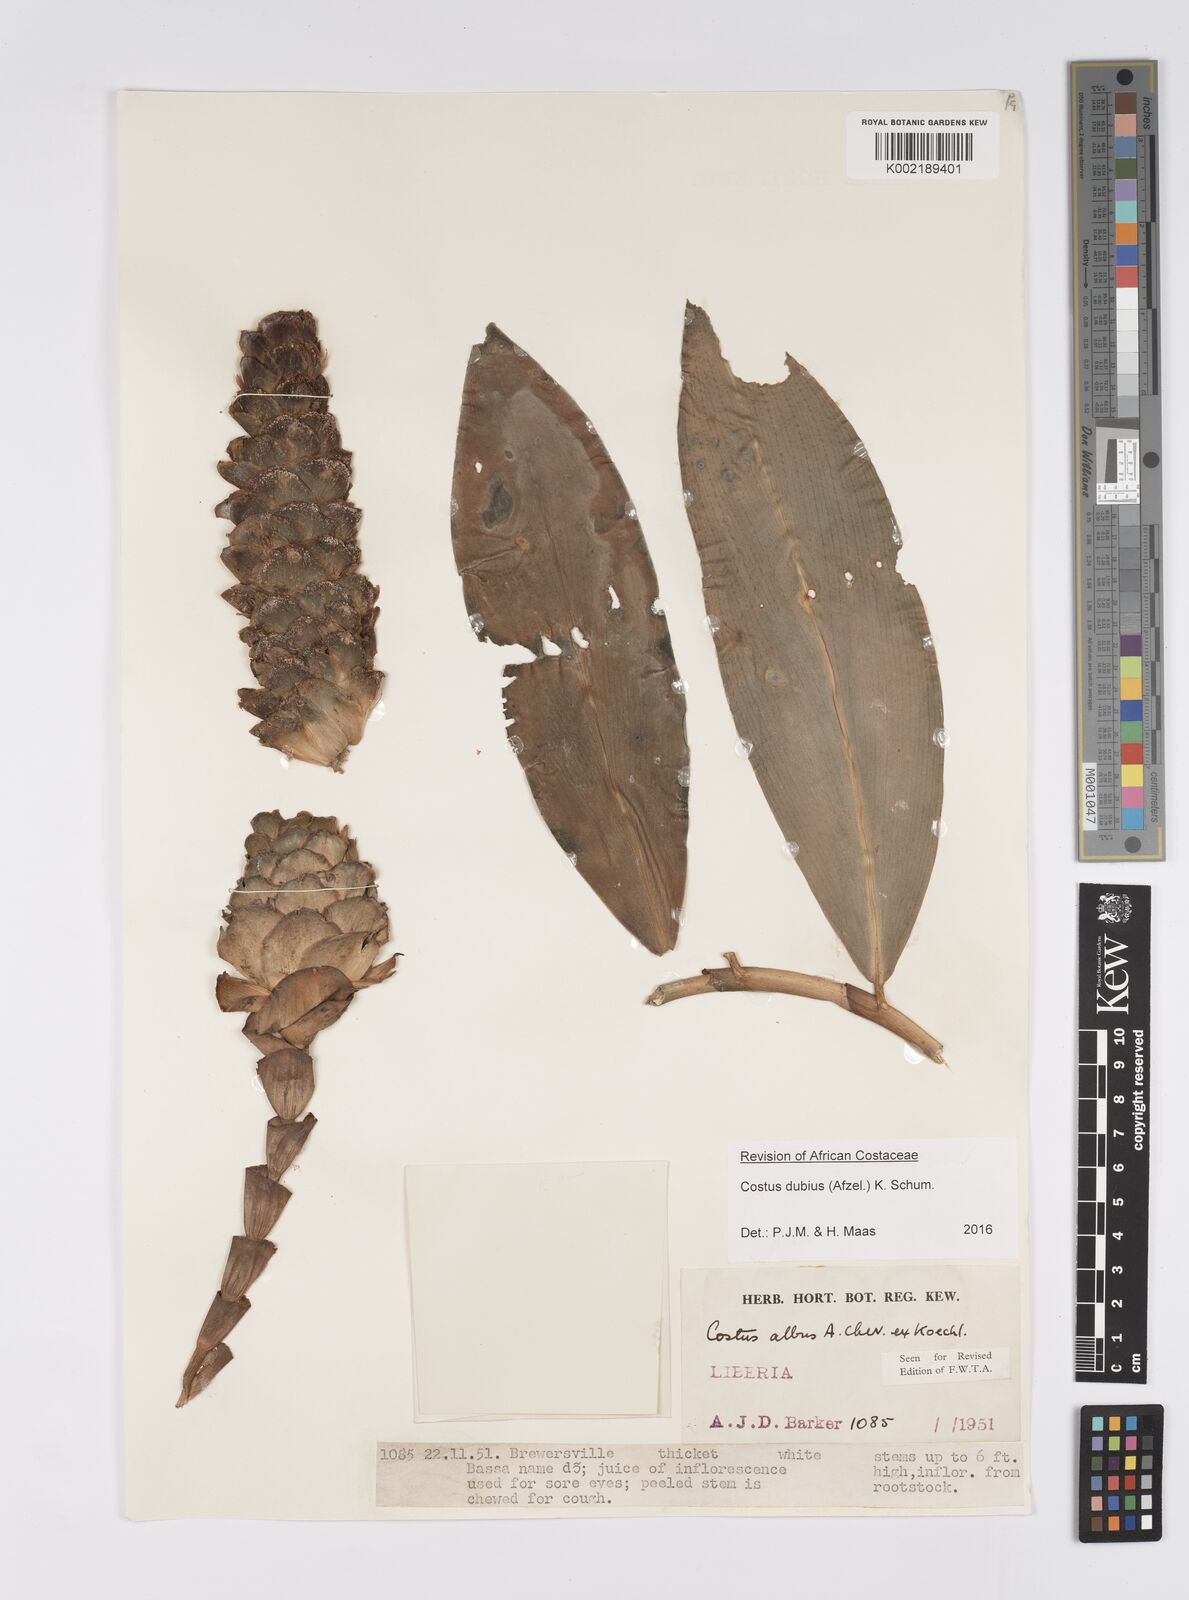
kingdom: Plantae
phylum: Tracheophyta
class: Liliopsida
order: Zingiberales
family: Costaceae
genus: Costus
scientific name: Costus dubius
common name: Costus
